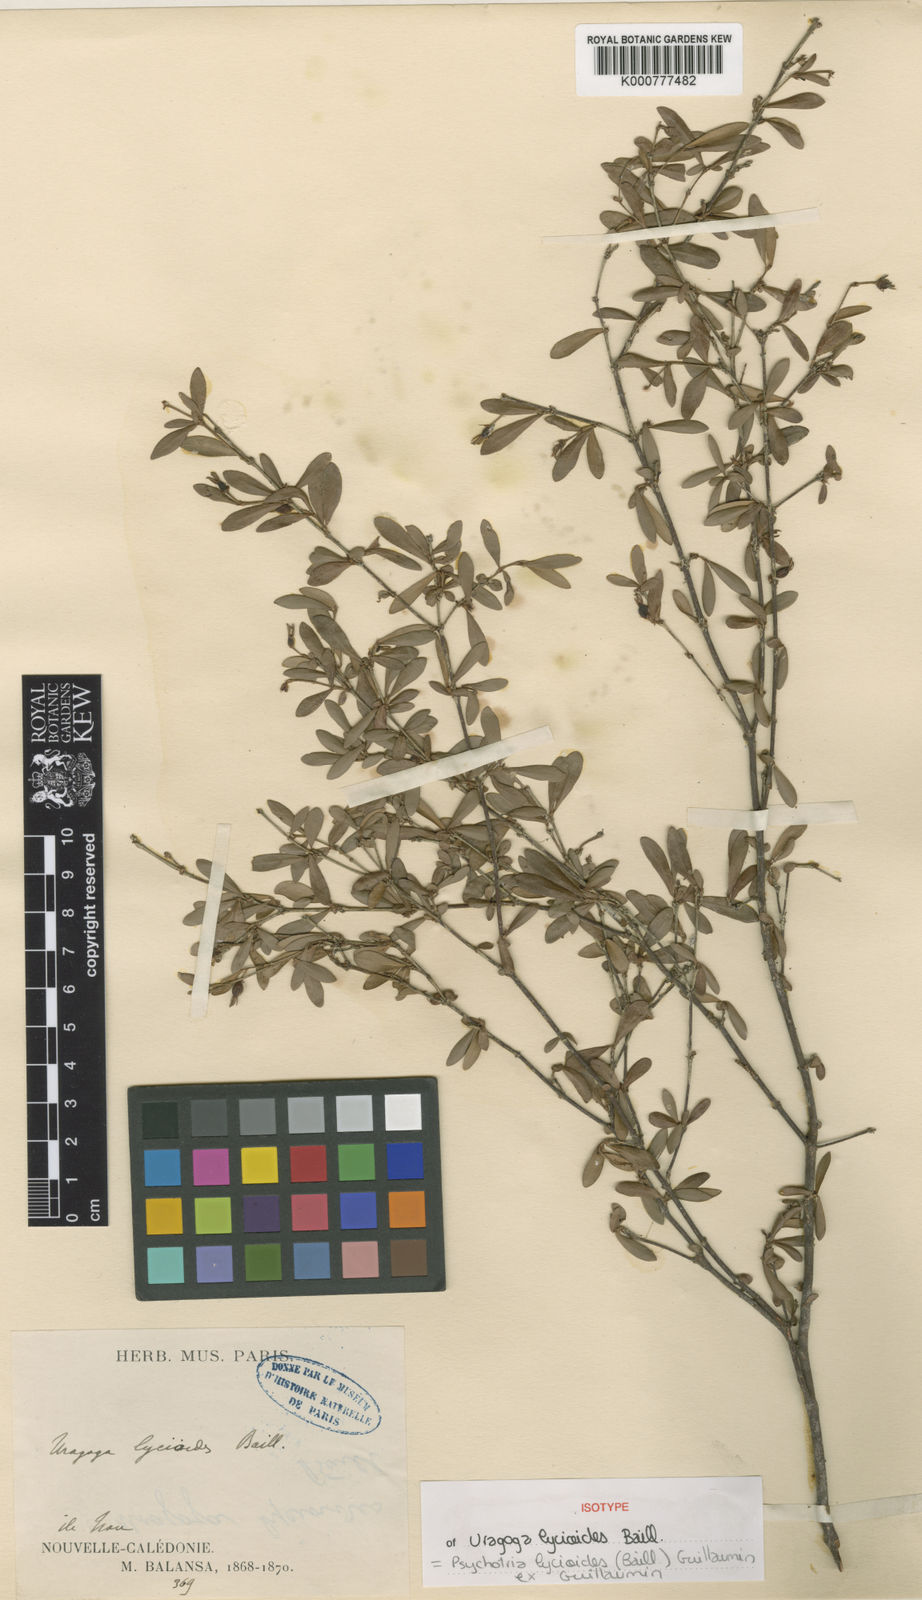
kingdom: Plantae
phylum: Tracheophyta
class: Magnoliopsida
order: Gentianales
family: Rubiaceae
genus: Psychotria
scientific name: Psychotria lycioides
